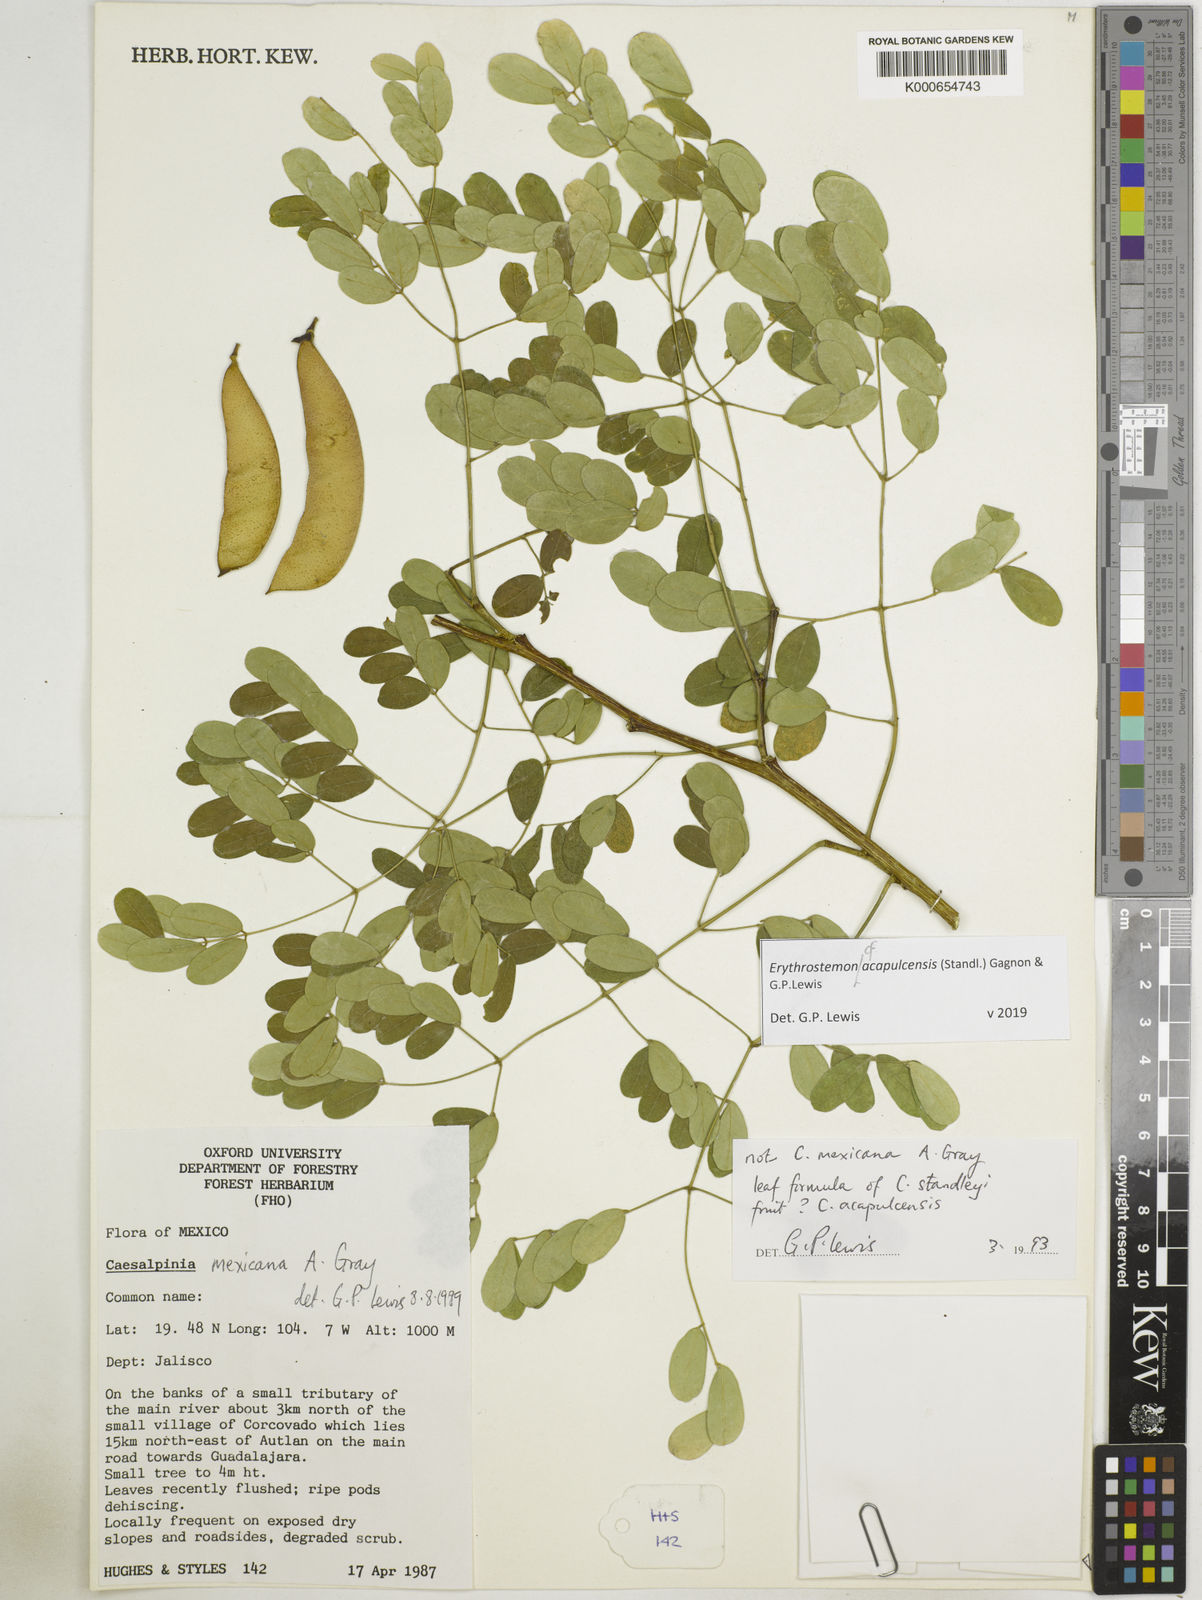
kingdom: Plantae
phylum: Tracheophyta
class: Magnoliopsida
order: Fabales
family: Fabaceae
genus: Erythrostemon
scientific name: Erythrostemon acapulcensis
